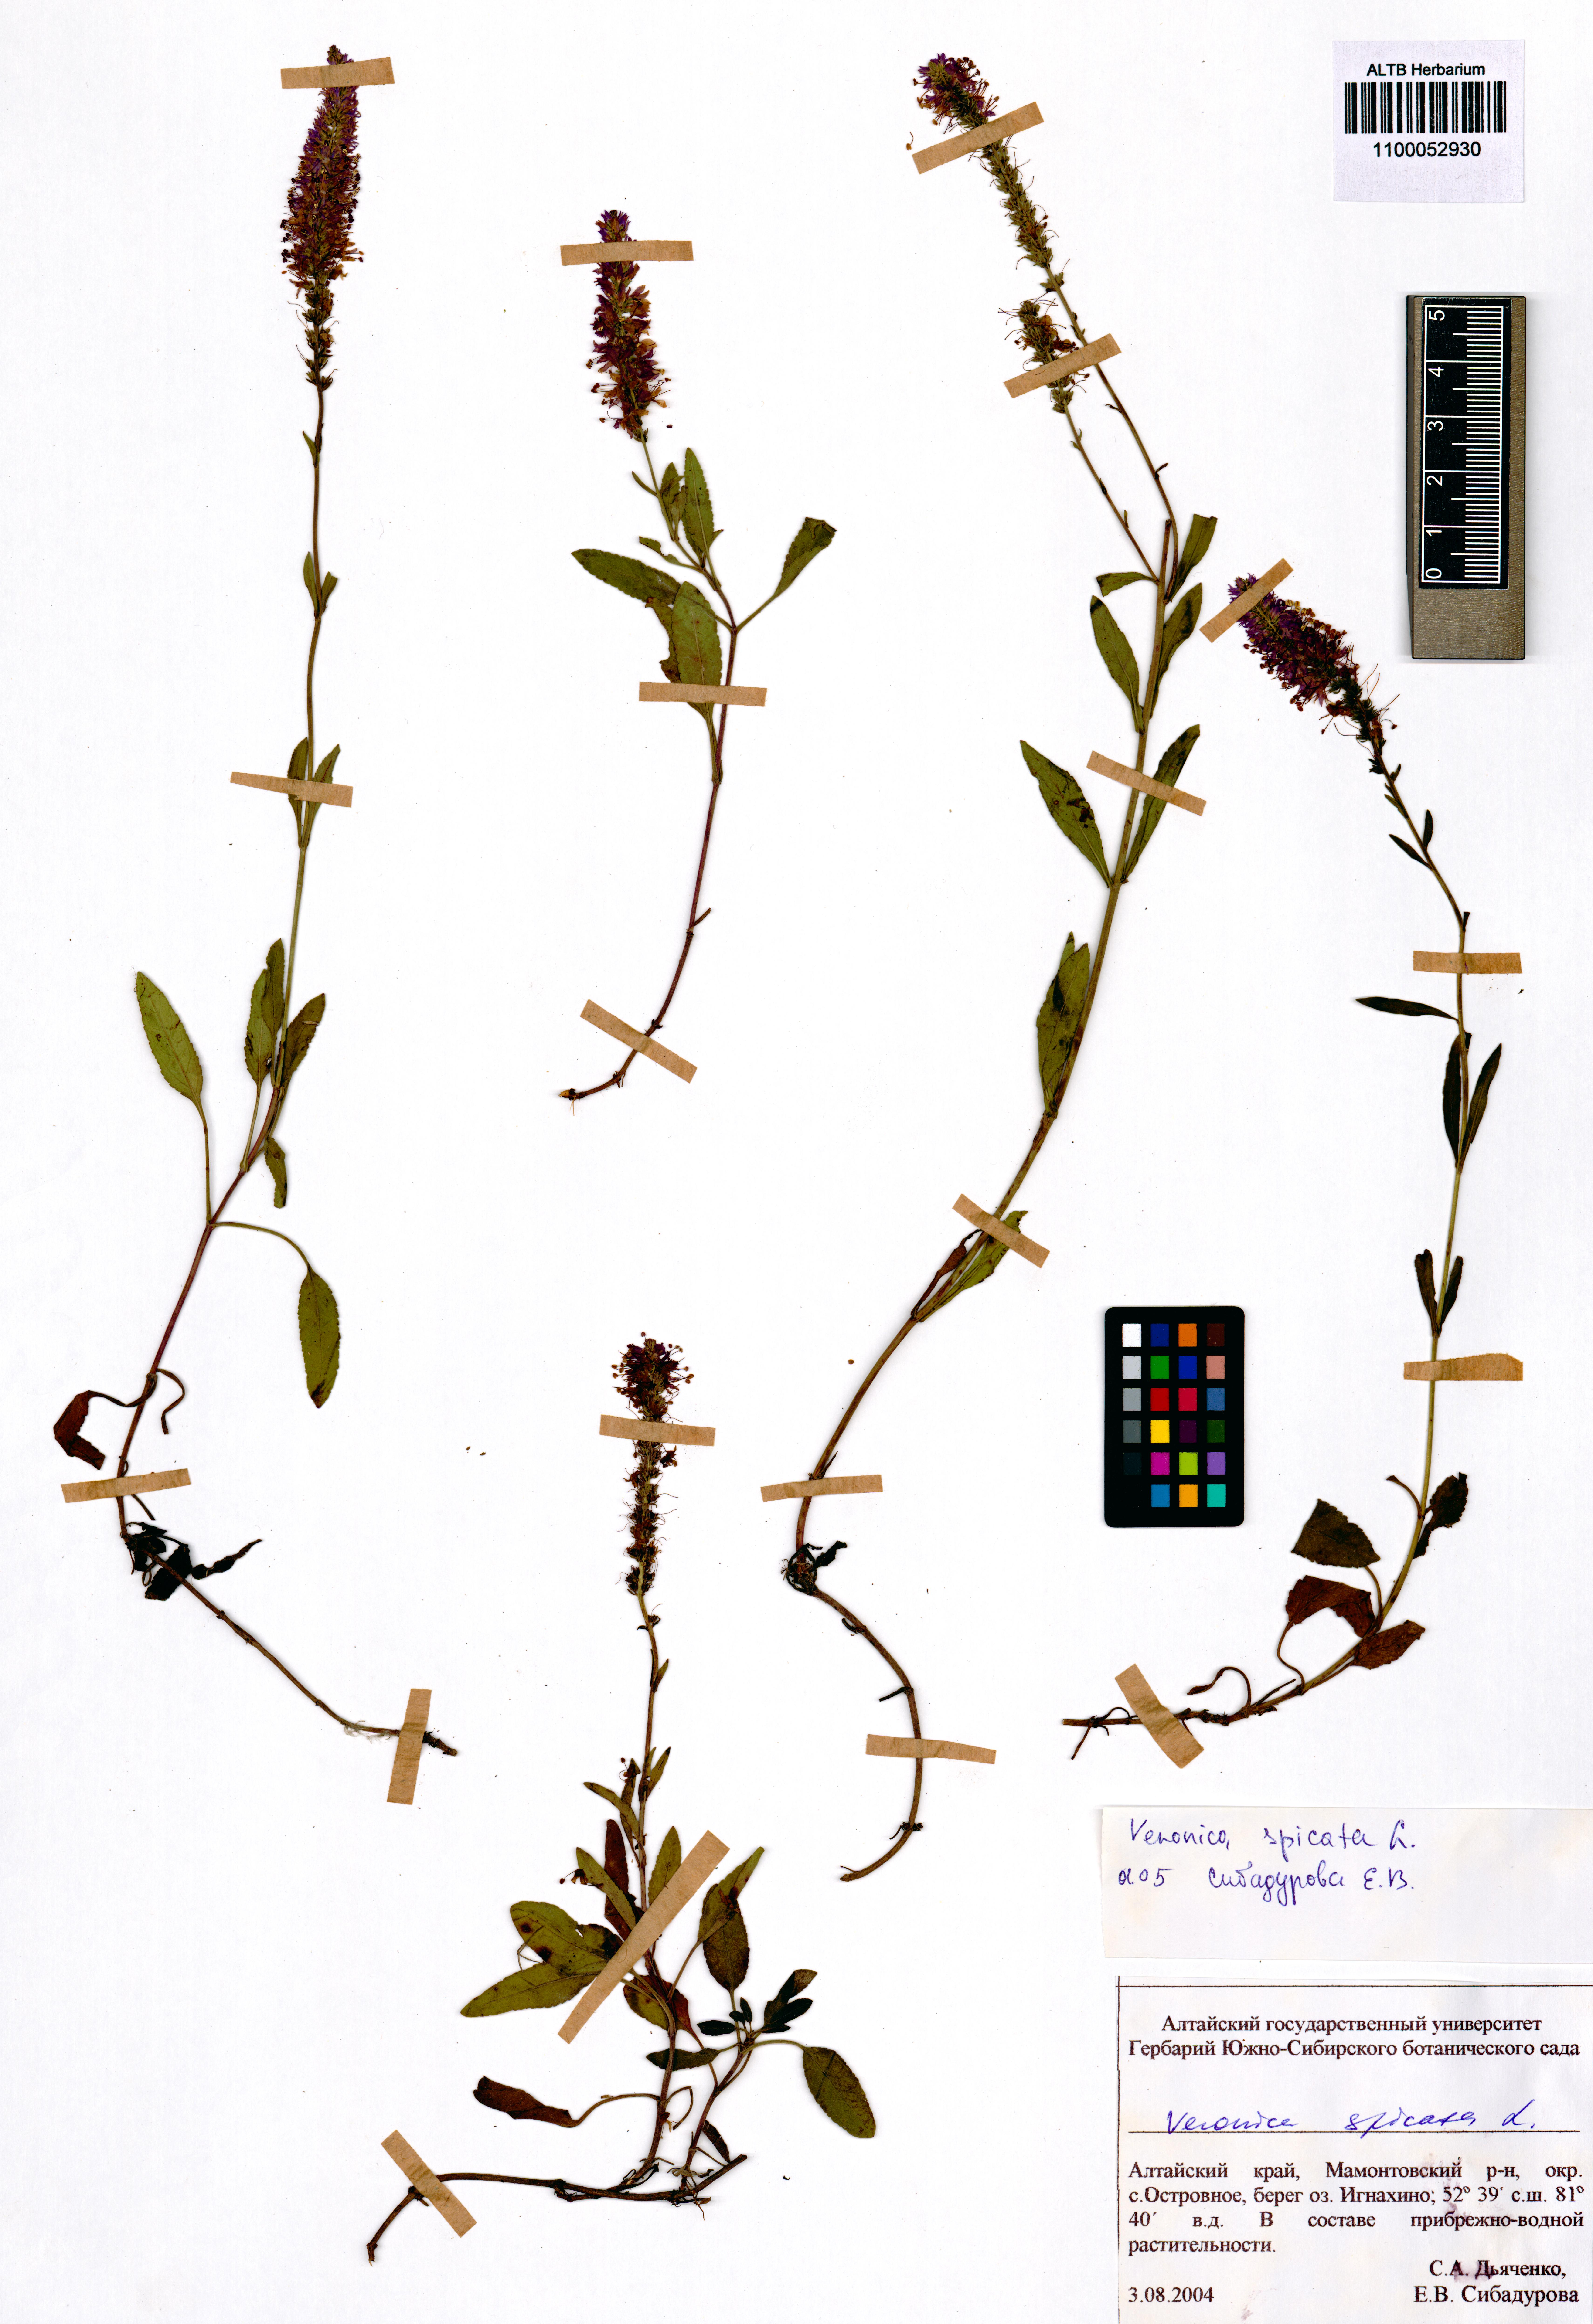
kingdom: Plantae
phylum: Tracheophyta
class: Magnoliopsida
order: Lamiales
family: Plantaginaceae
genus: Veronica
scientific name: Veronica spicata
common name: Spiked speedwell
